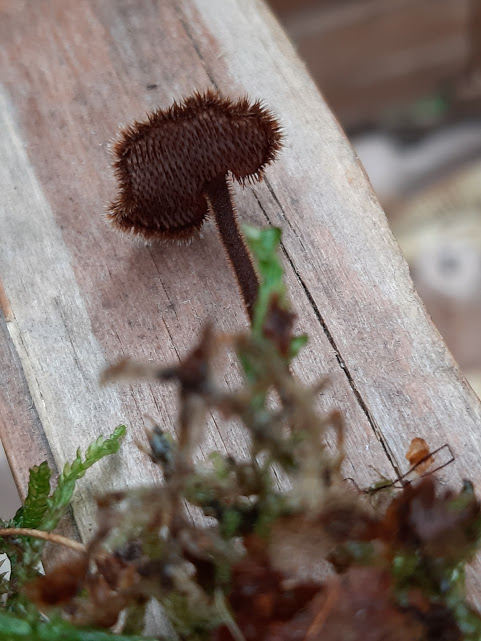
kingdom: Fungi
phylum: Basidiomycota
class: Agaricomycetes
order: Russulales
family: Auriscalpiaceae
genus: Auriscalpium
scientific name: Auriscalpium vulgare
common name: koglepigsvamp
